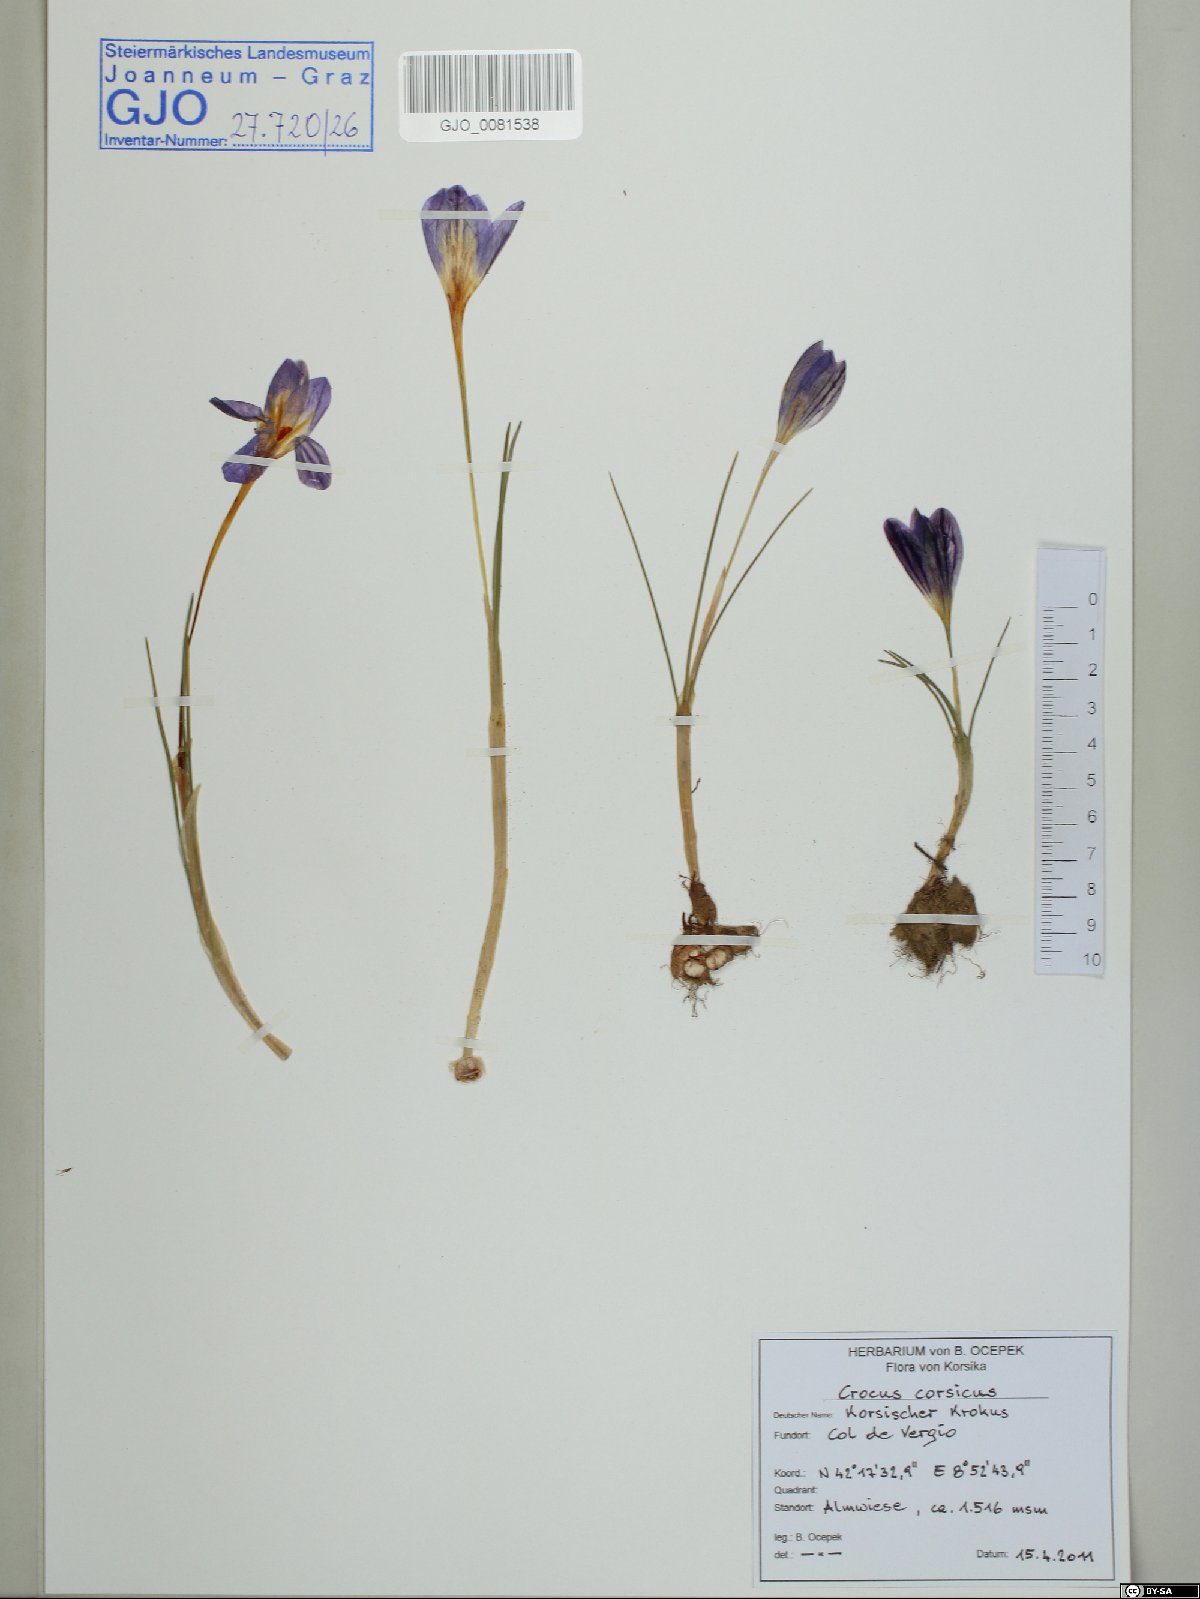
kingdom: Plantae
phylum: Tracheophyta
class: Liliopsida
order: Asparagales
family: Iridaceae
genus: Crocus
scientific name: Crocus corsicus
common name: Corsican crocus
